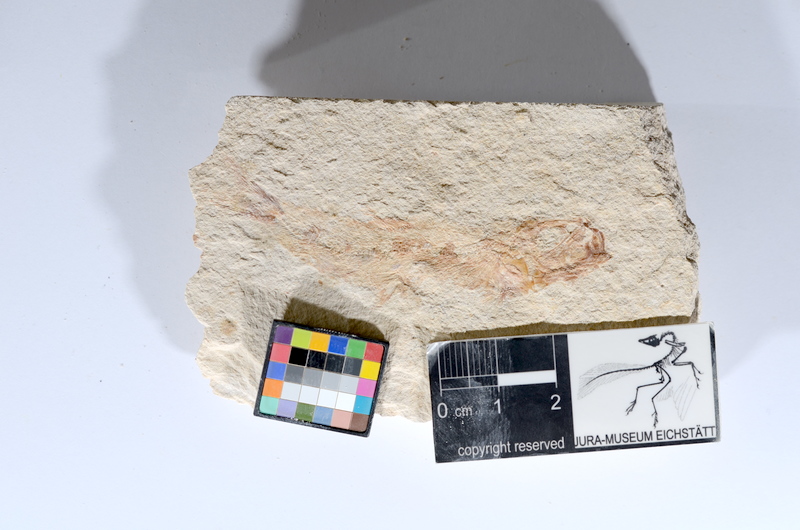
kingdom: Animalia
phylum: Chordata
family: Ascalaboidae
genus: Tharsis
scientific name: Tharsis dubius
